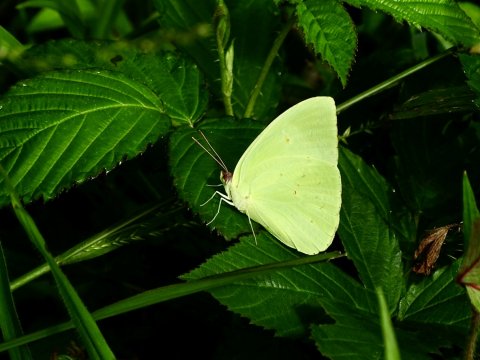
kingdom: Animalia
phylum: Arthropoda
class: Insecta
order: Lepidoptera
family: Pieridae
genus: Phoebis
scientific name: Phoebis sennae
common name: Cloudless Sulphur
